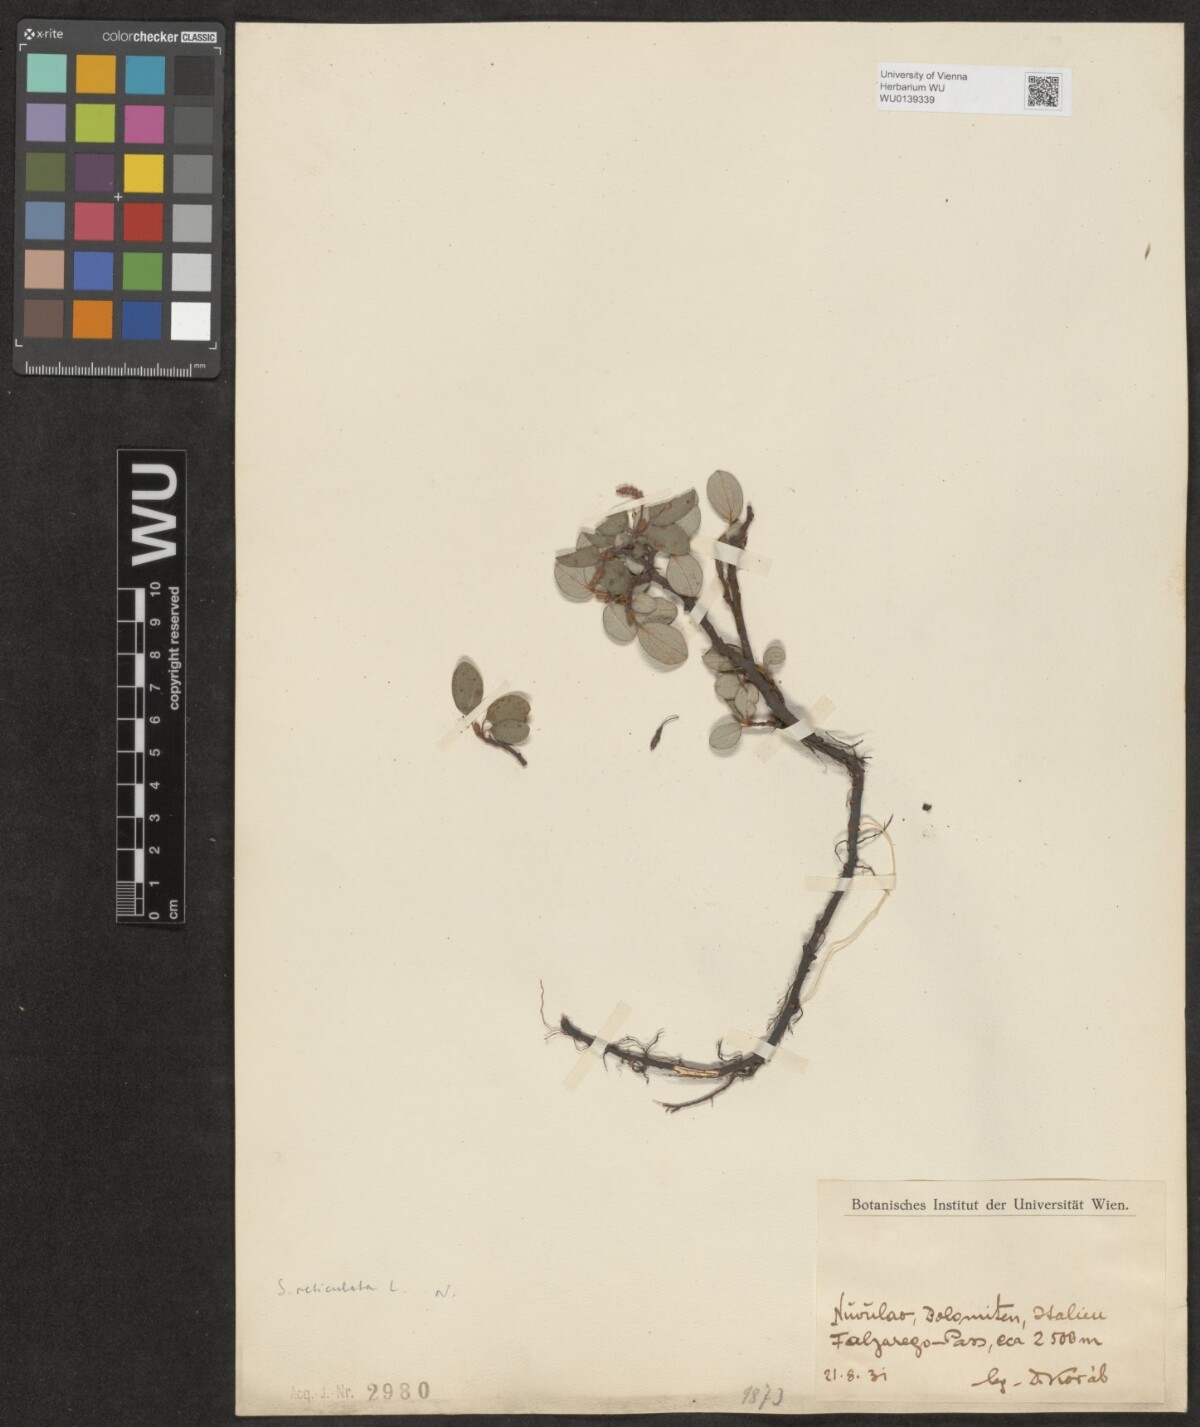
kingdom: Plantae
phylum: Tracheophyta
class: Magnoliopsida
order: Malpighiales
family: Salicaceae
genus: Salix
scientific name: Salix reticulata
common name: Net-leaved willow
